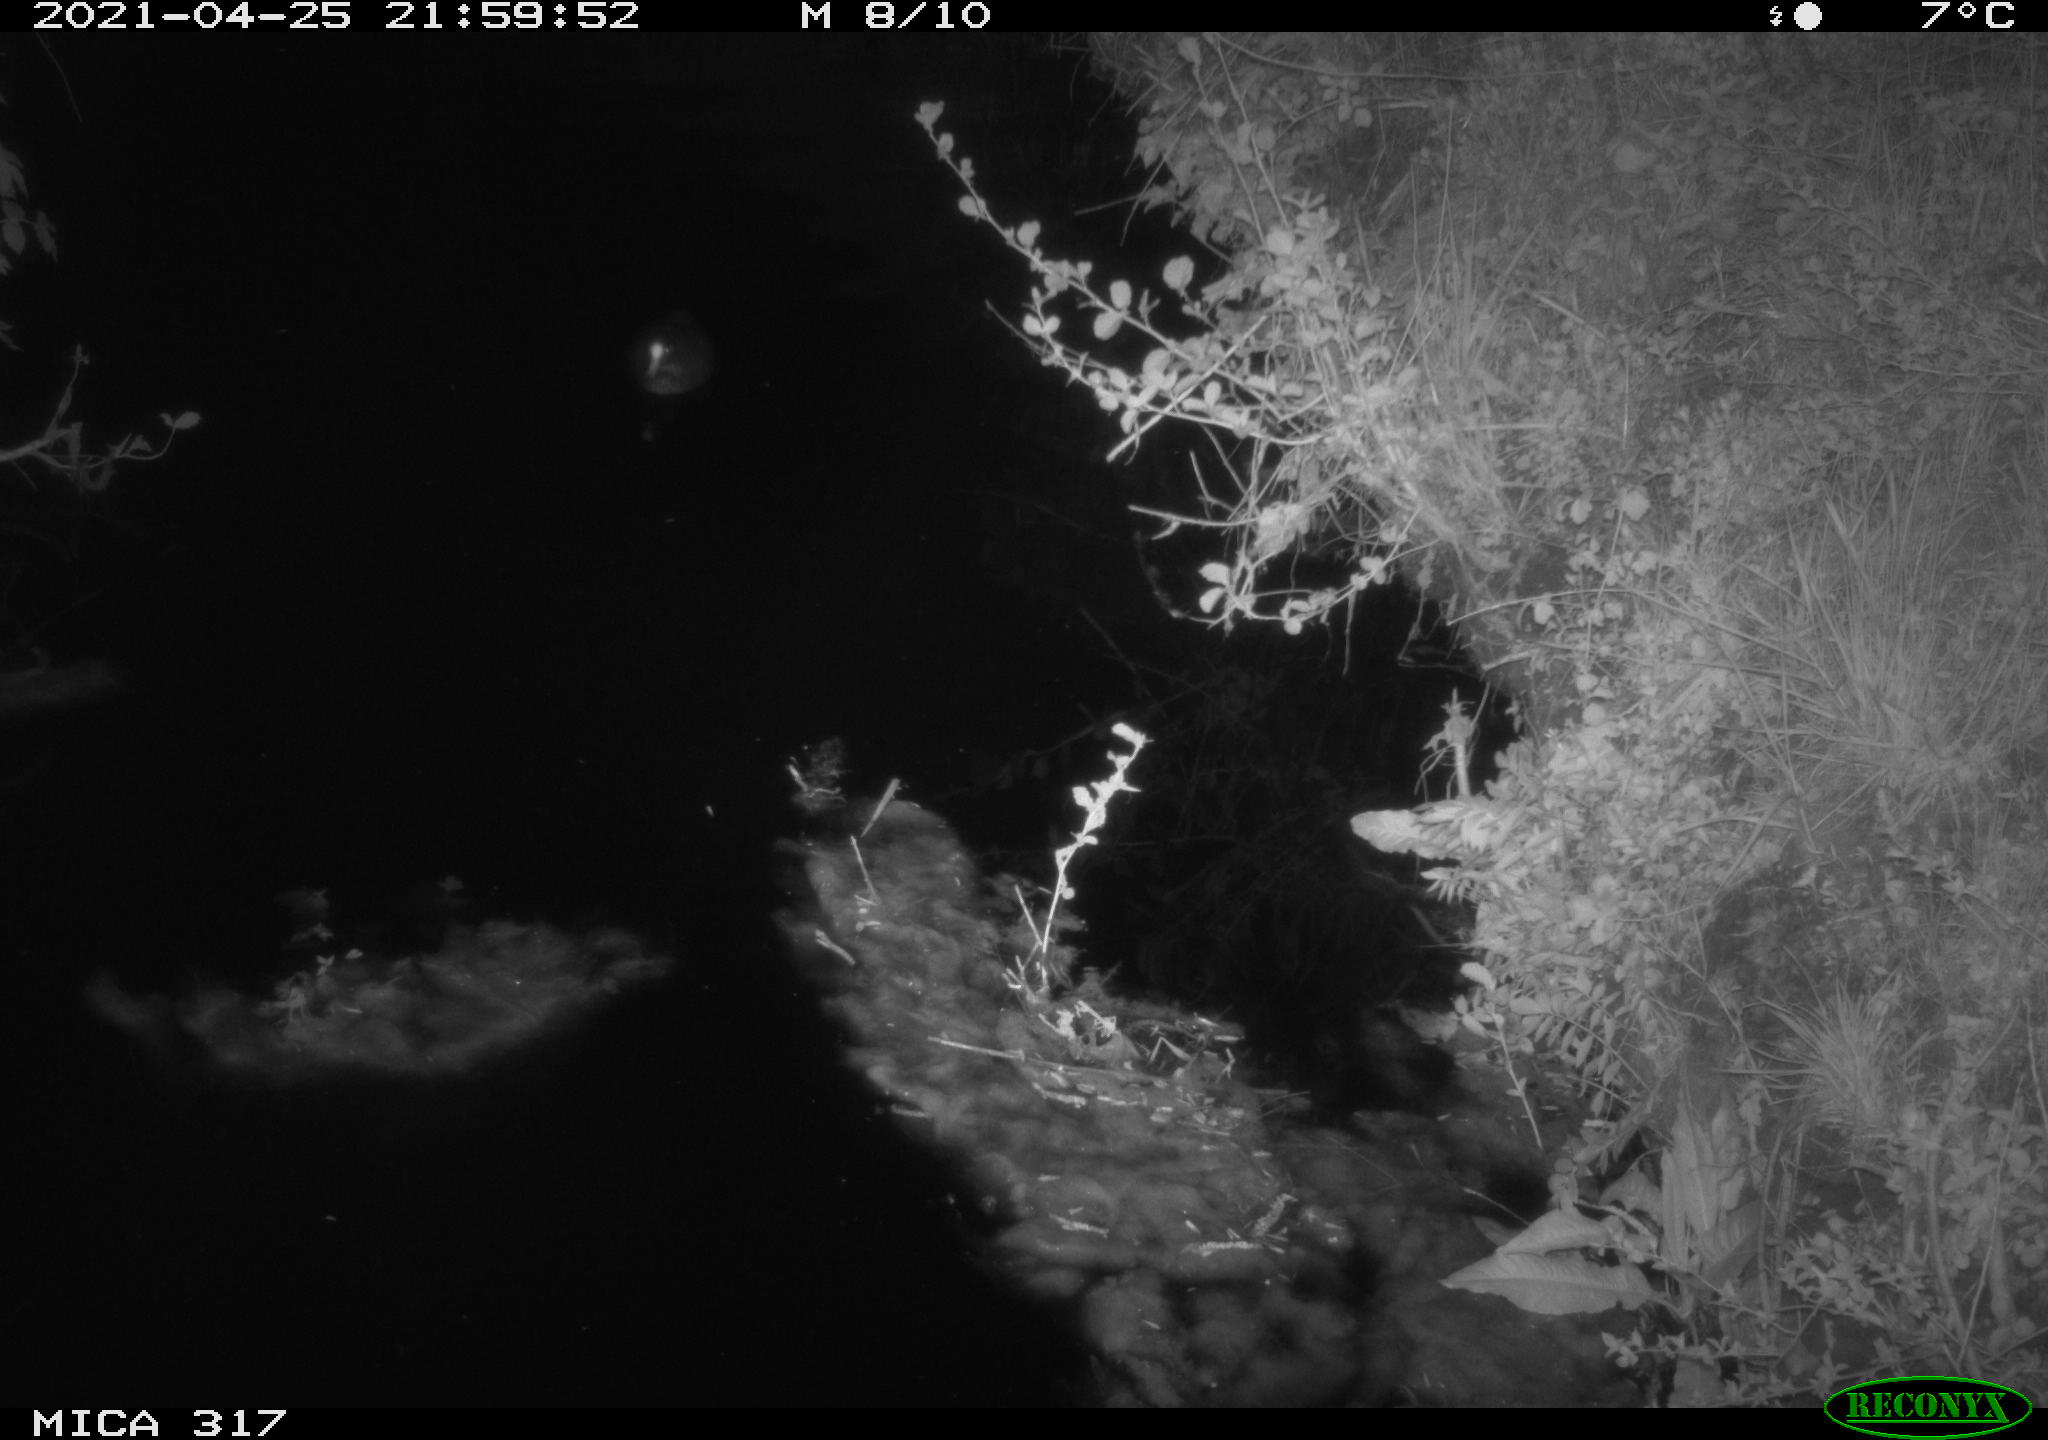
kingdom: Animalia
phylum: Chordata
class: Aves
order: Anseriformes
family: Anatidae
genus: Anas
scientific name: Anas
